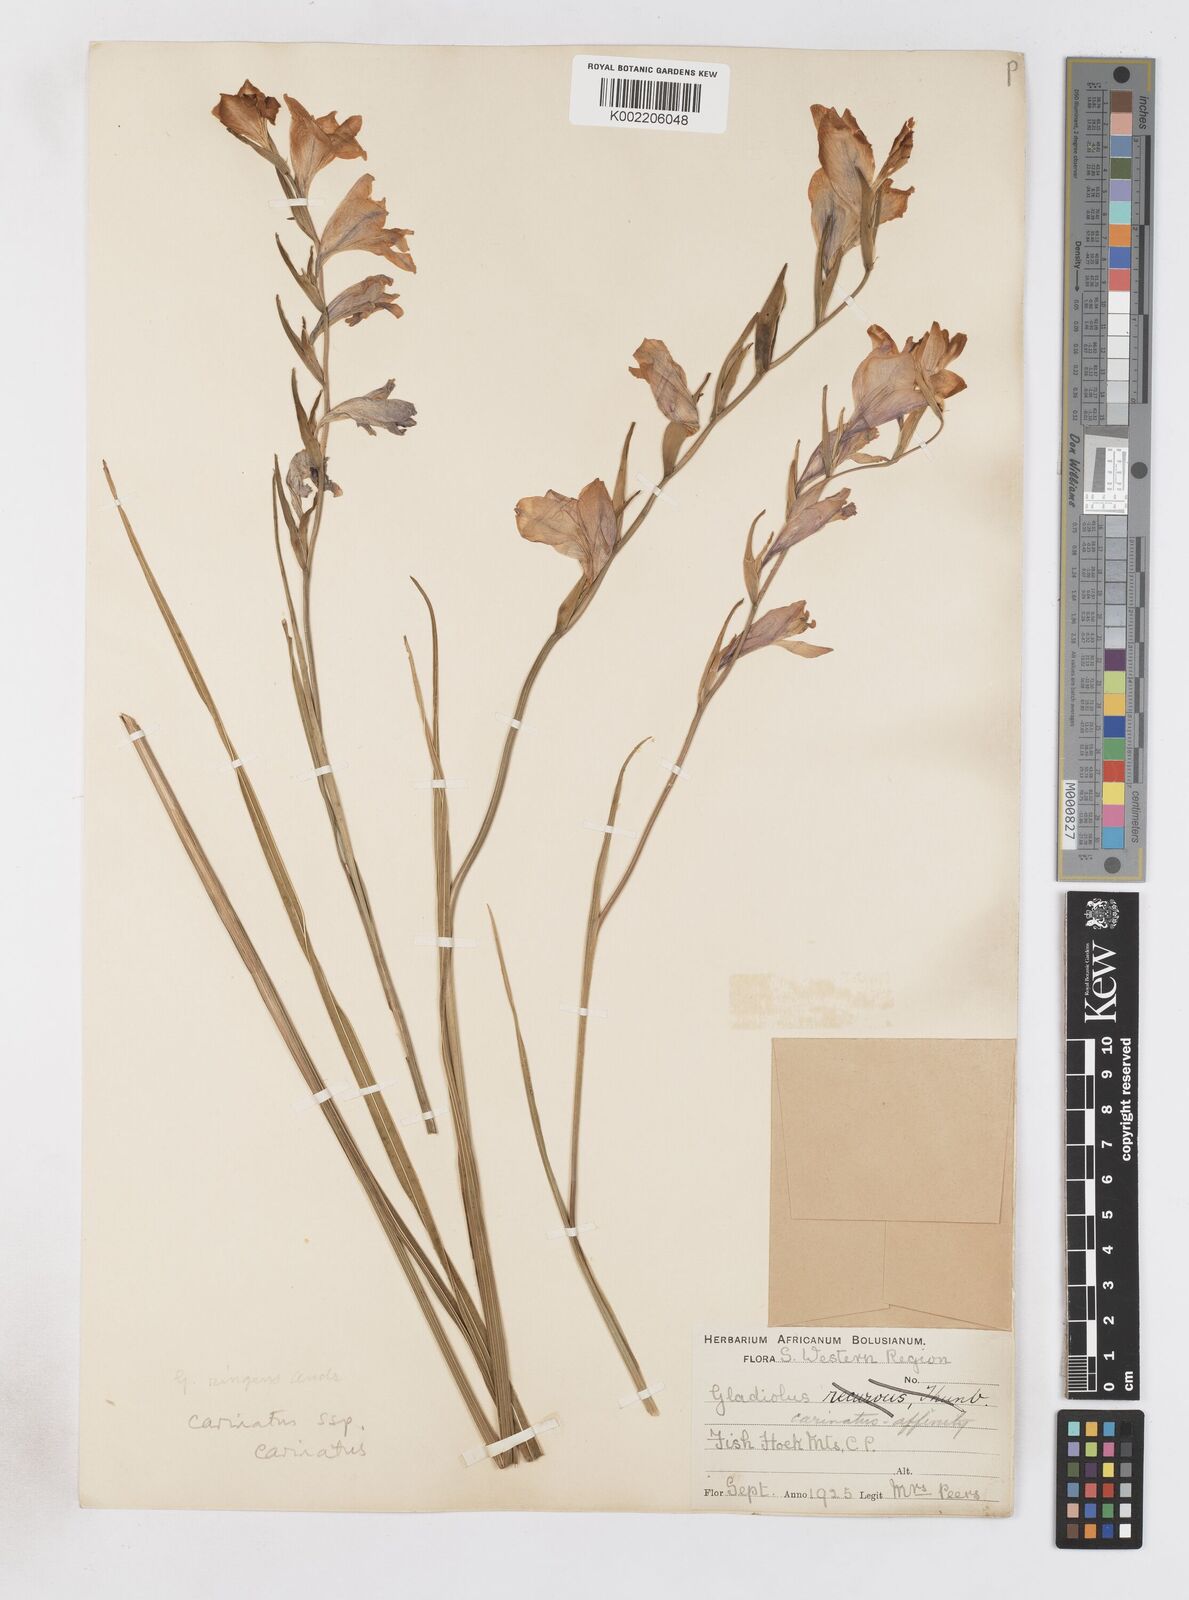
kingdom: Plantae
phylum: Tracheophyta
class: Liliopsida
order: Asparagales
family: Iridaceae
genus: Gladiolus
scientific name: Gladiolus carinatus
